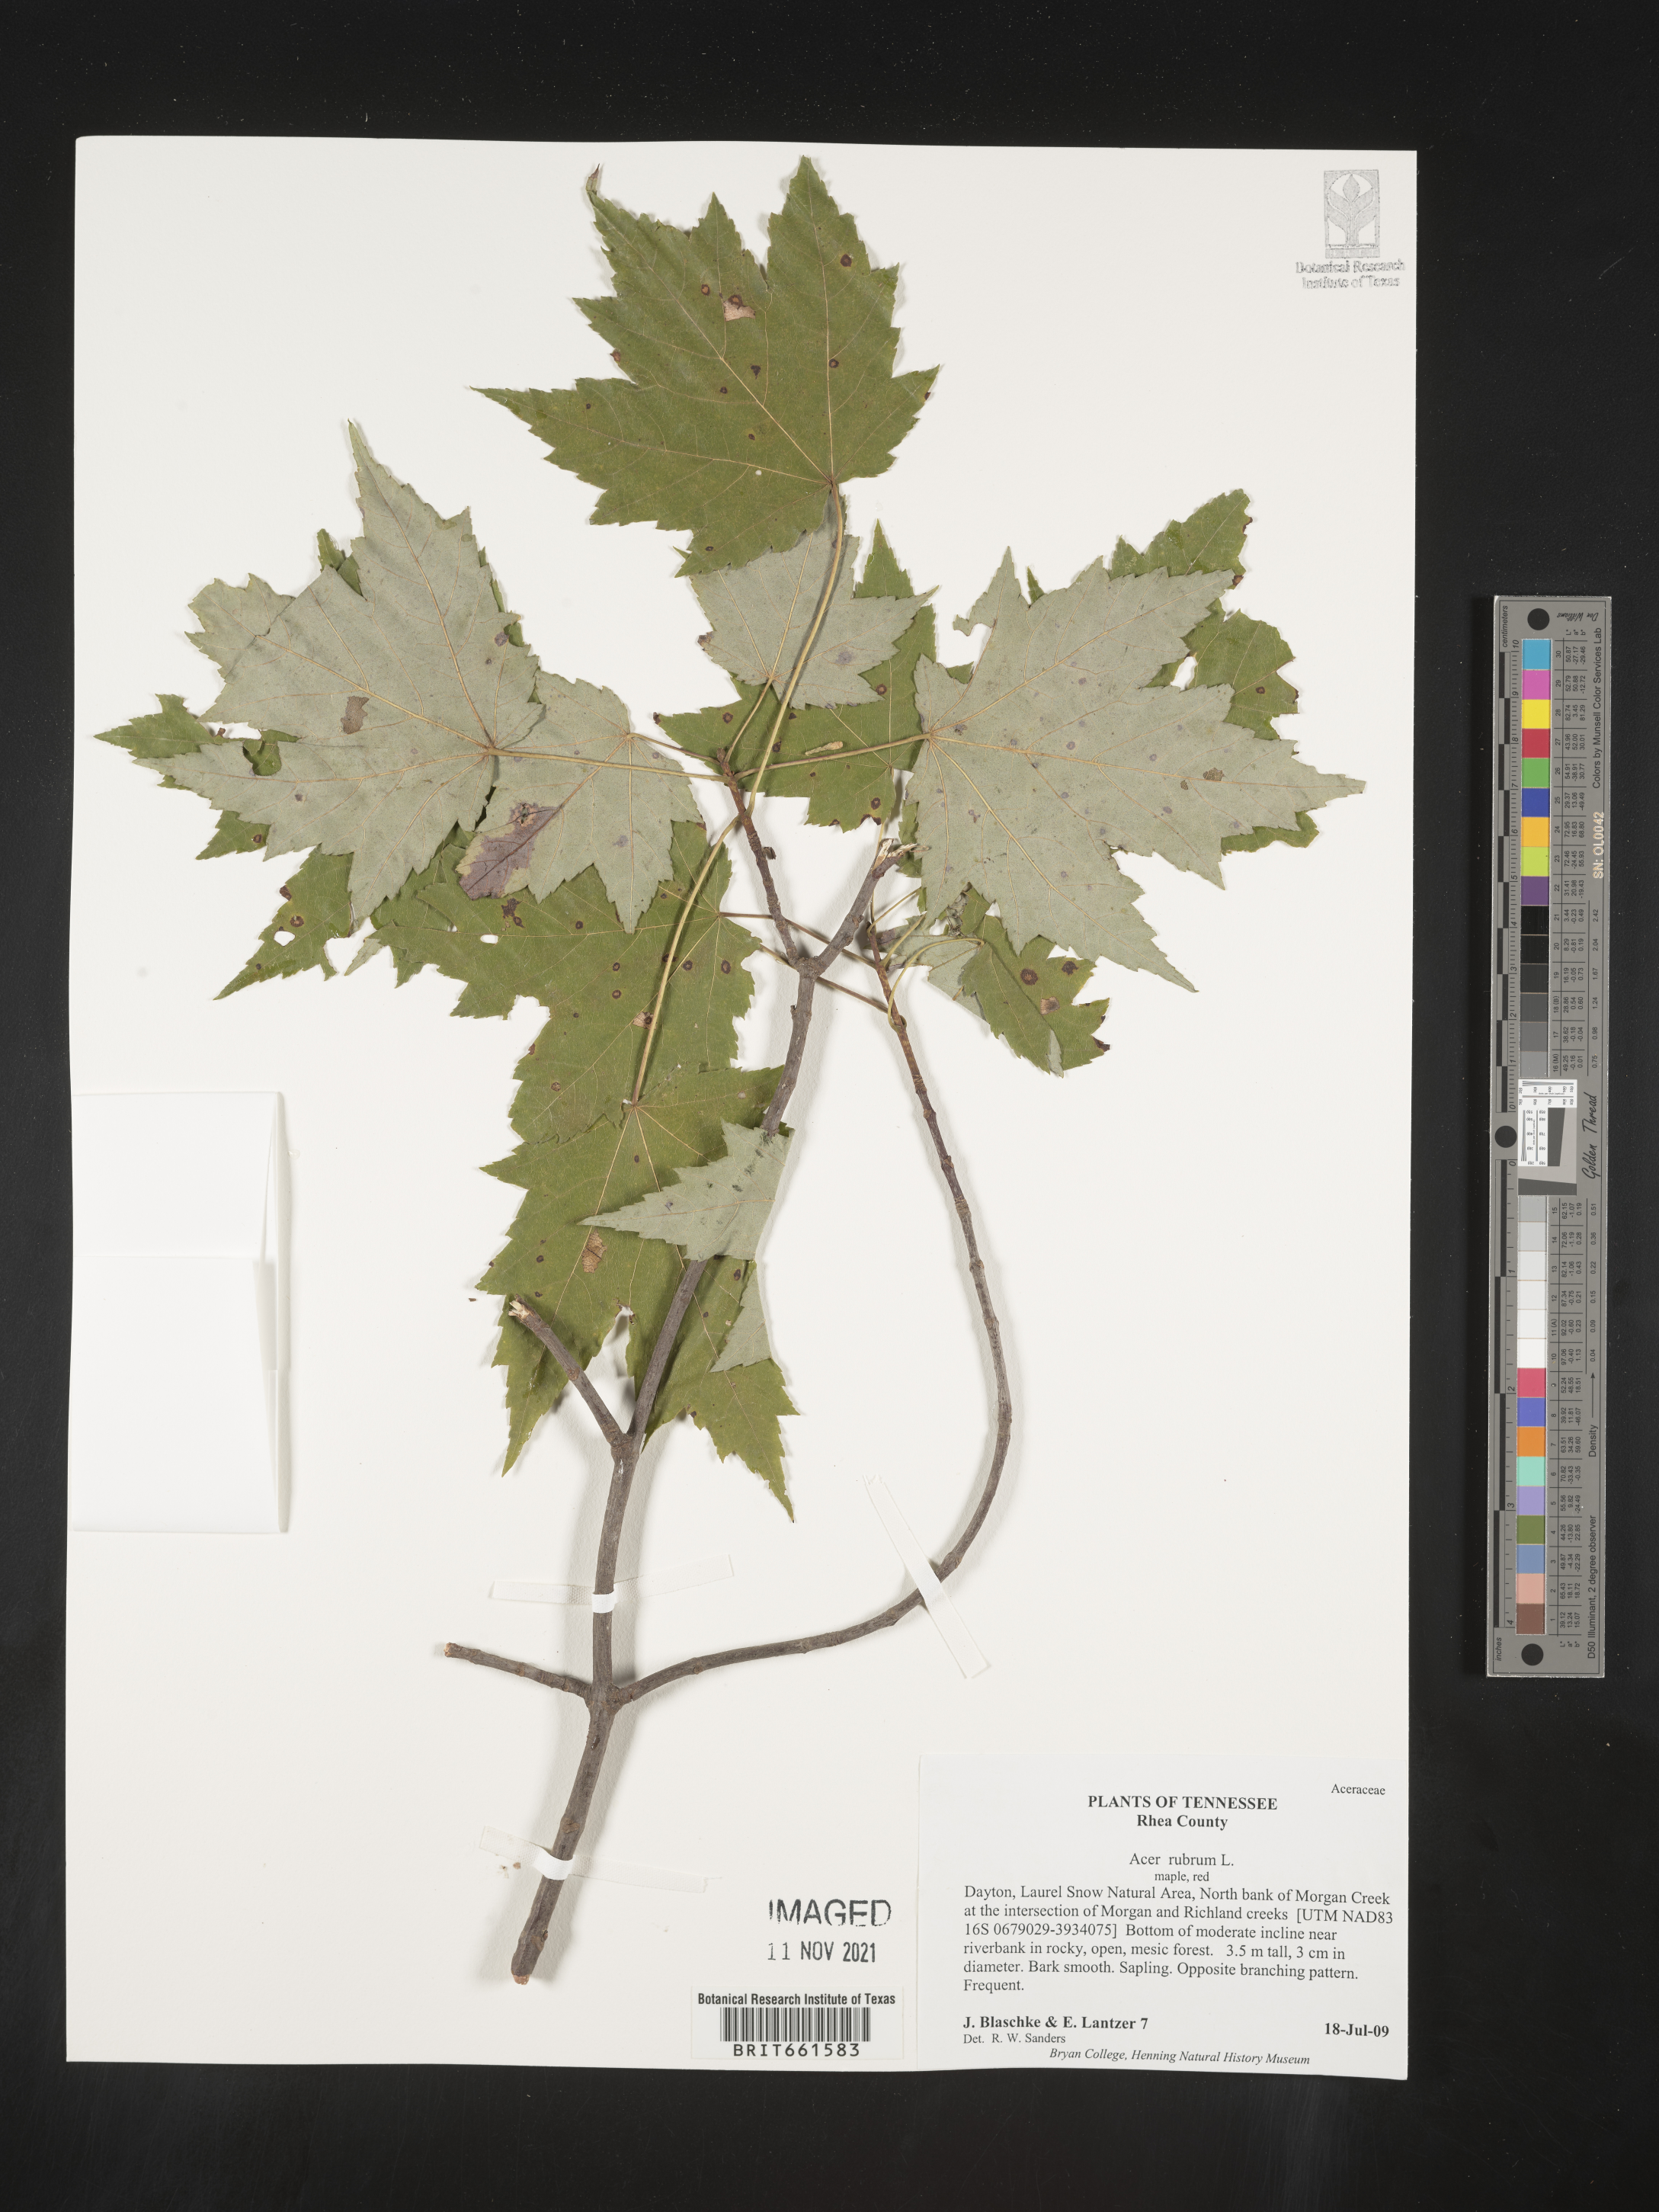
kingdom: Plantae
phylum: Tracheophyta
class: Magnoliopsida
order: Sapindales
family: Sapindaceae
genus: Acer
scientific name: Acer rubrum
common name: Red maple
